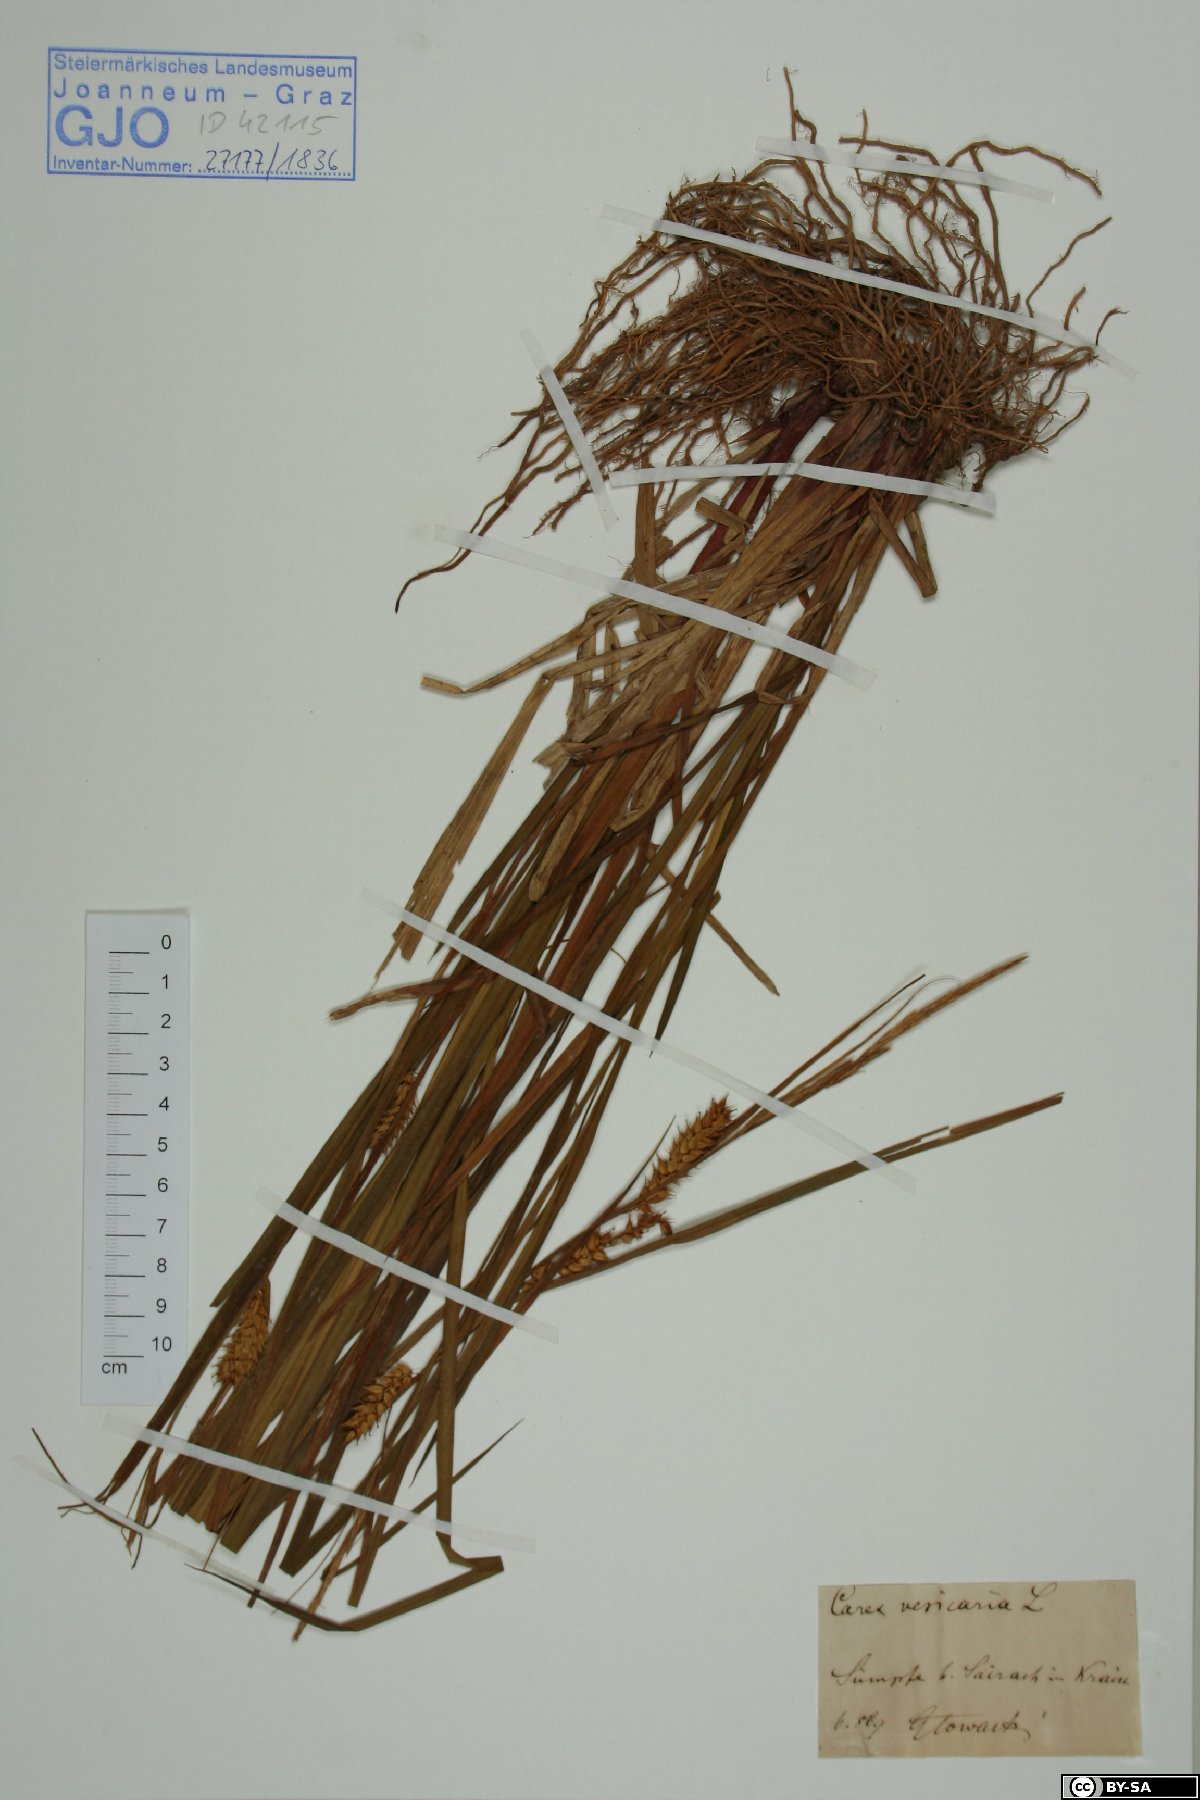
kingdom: Plantae
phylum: Tracheophyta
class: Liliopsida
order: Poales
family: Cyperaceae
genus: Carex
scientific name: Carex vesicaria
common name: Bladder-sedge
